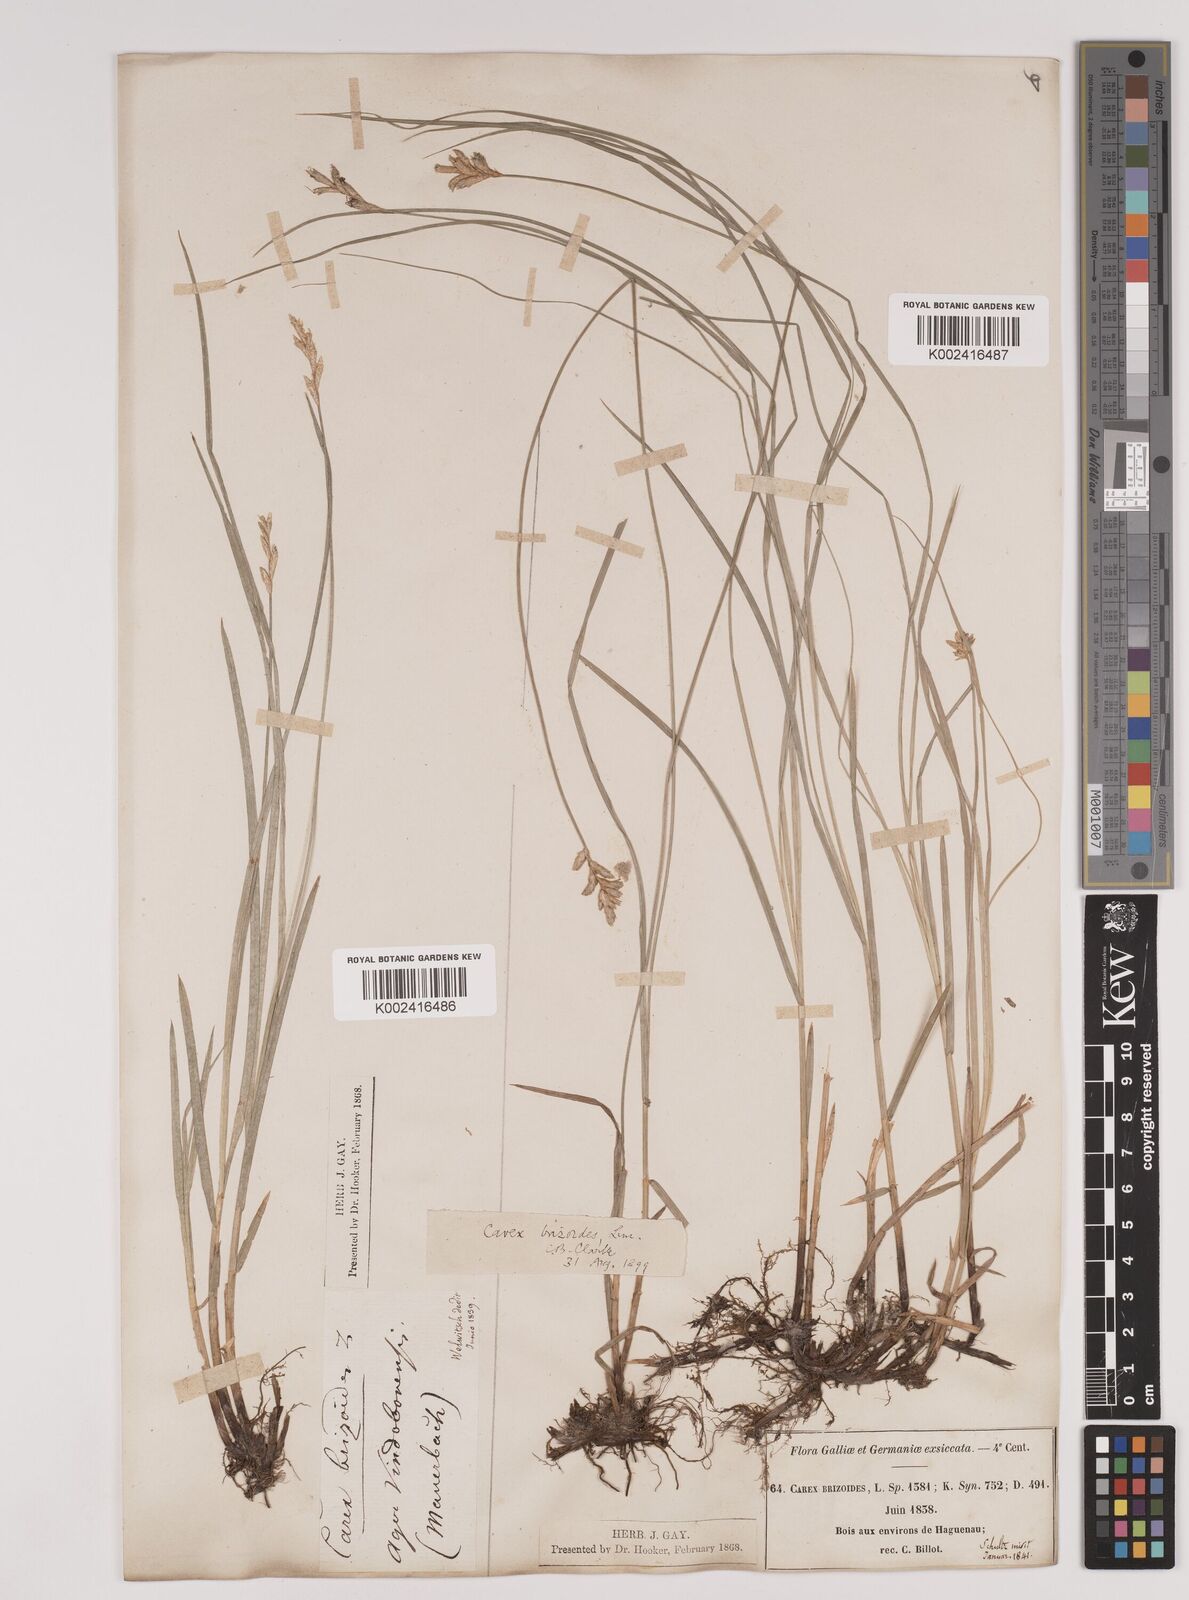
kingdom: Plantae
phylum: Tracheophyta
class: Liliopsida
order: Poales
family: Cyperaceae
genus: Carex
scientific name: Carex brizoides
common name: Quaking-grass sedge
